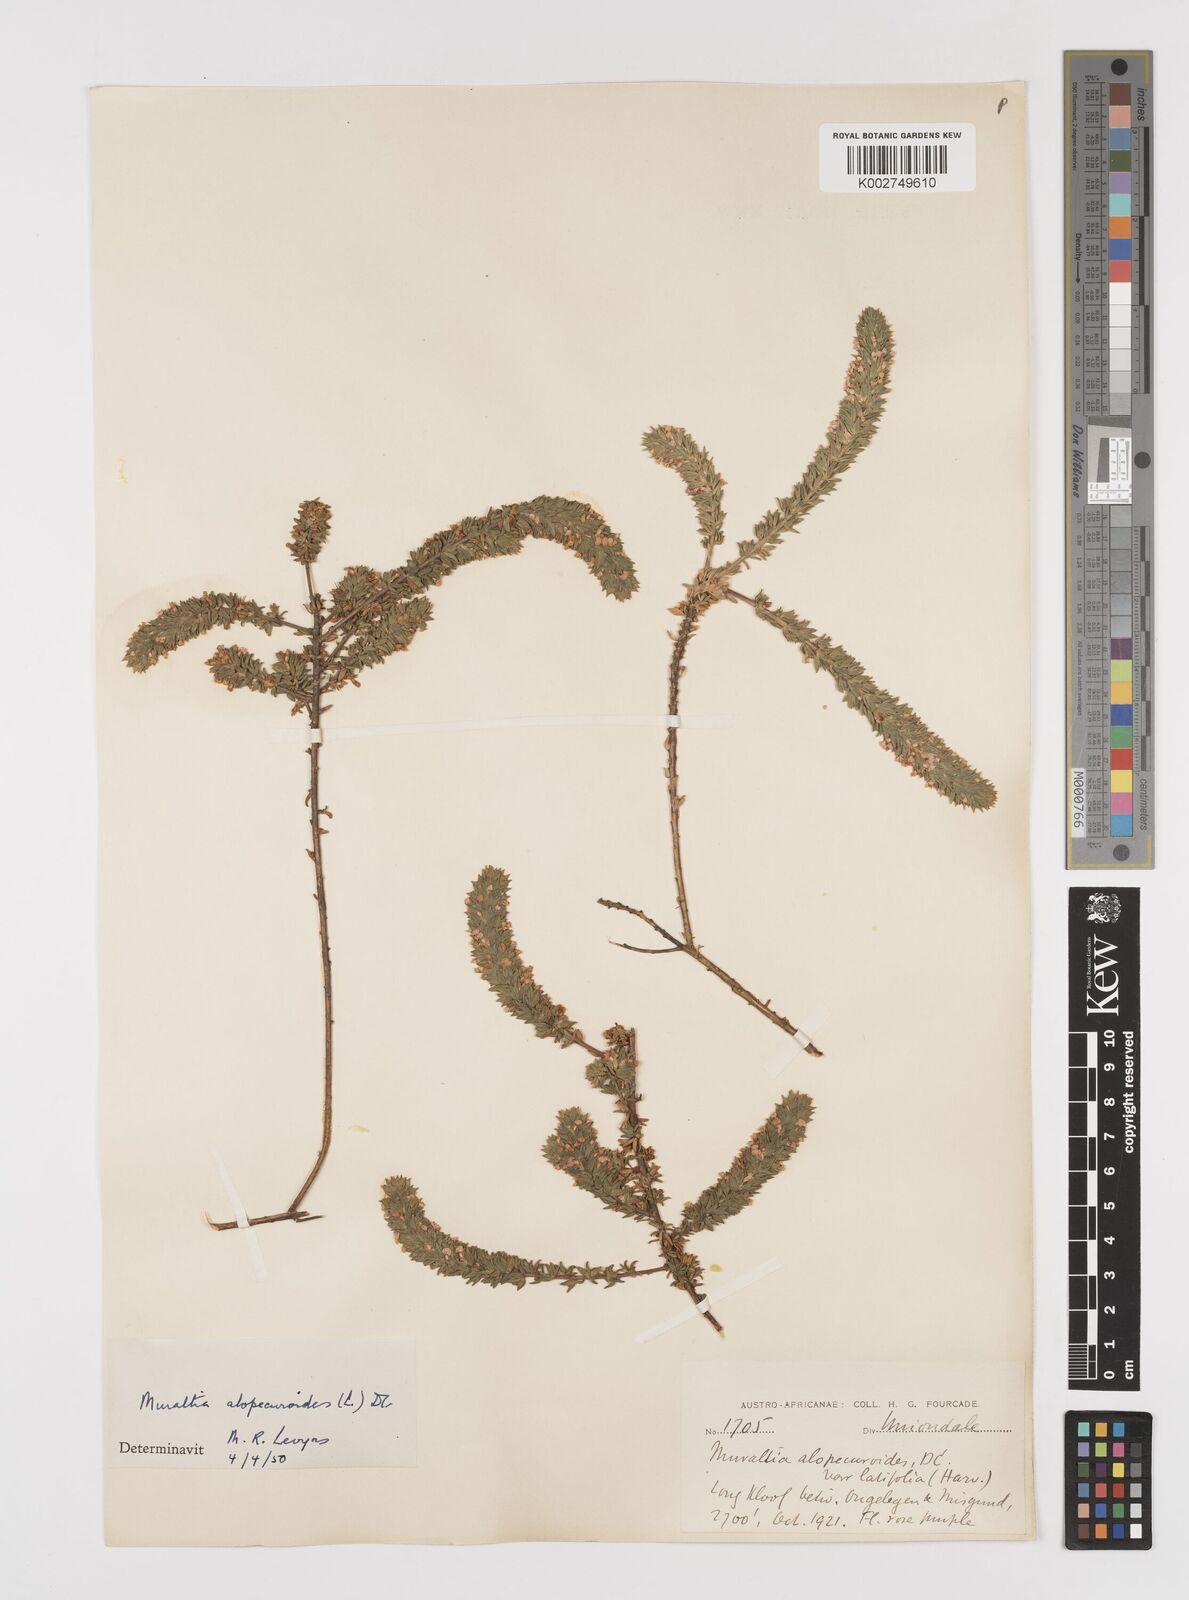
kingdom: Plantae
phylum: Tracheophyta
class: Magnoliopsida
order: Fabales
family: Polygalaceae
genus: Muraltia
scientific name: Muraltia alopecuroides
